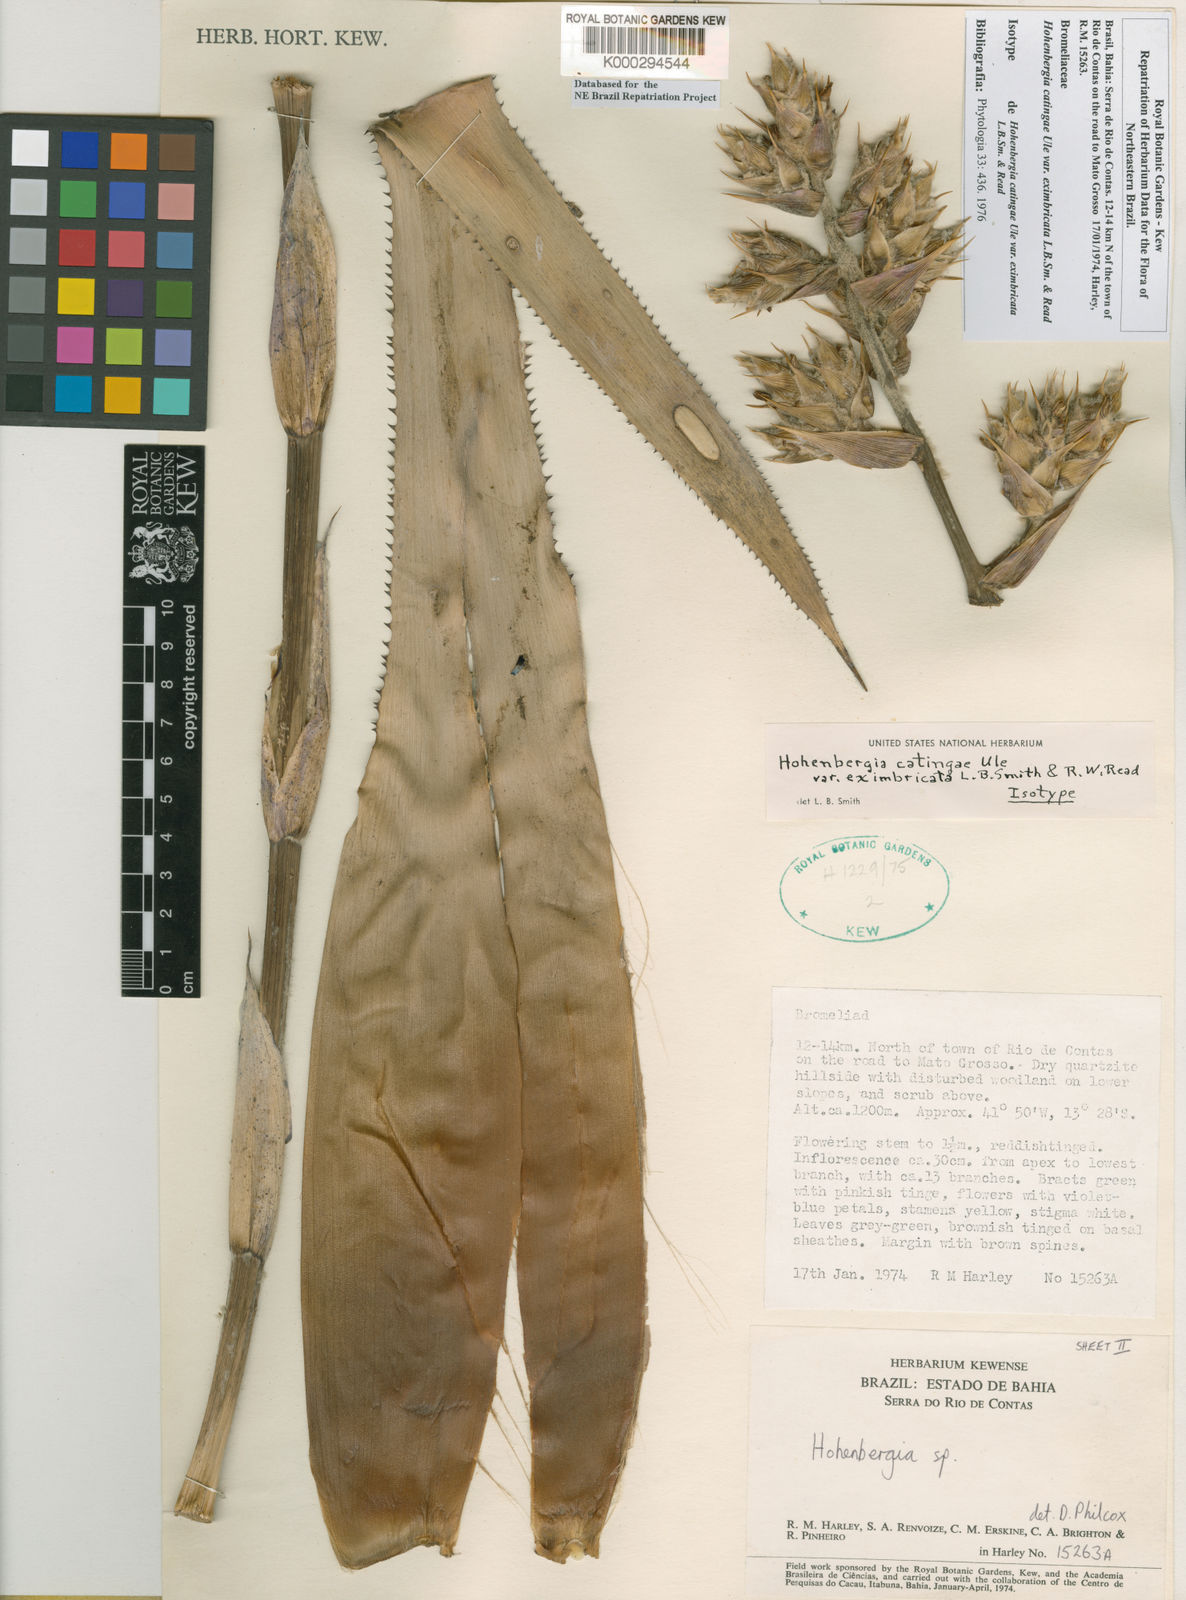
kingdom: Plantae
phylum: Tracheophyta
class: Liliopsida
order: Poales
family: Bromeliaceae
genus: Hohenbergia
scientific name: Hohenbergia catingae
